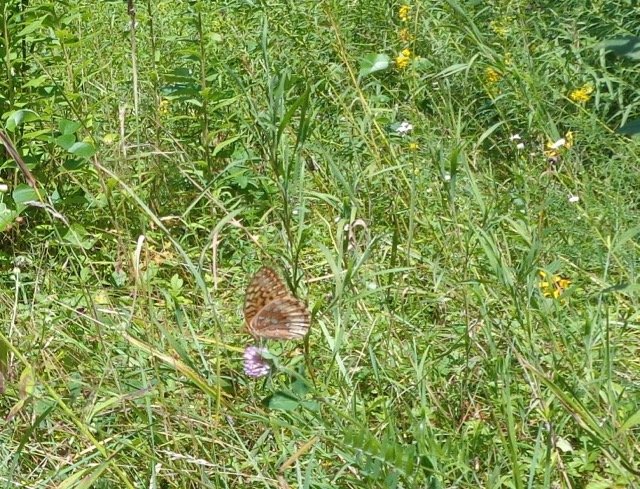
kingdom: Animalia
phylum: Arthropoda
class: Insecta
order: Lepidoptera
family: Nymphalidae
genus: Speyeria
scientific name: Speyeria cybele
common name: Great Spangled Fritillary
